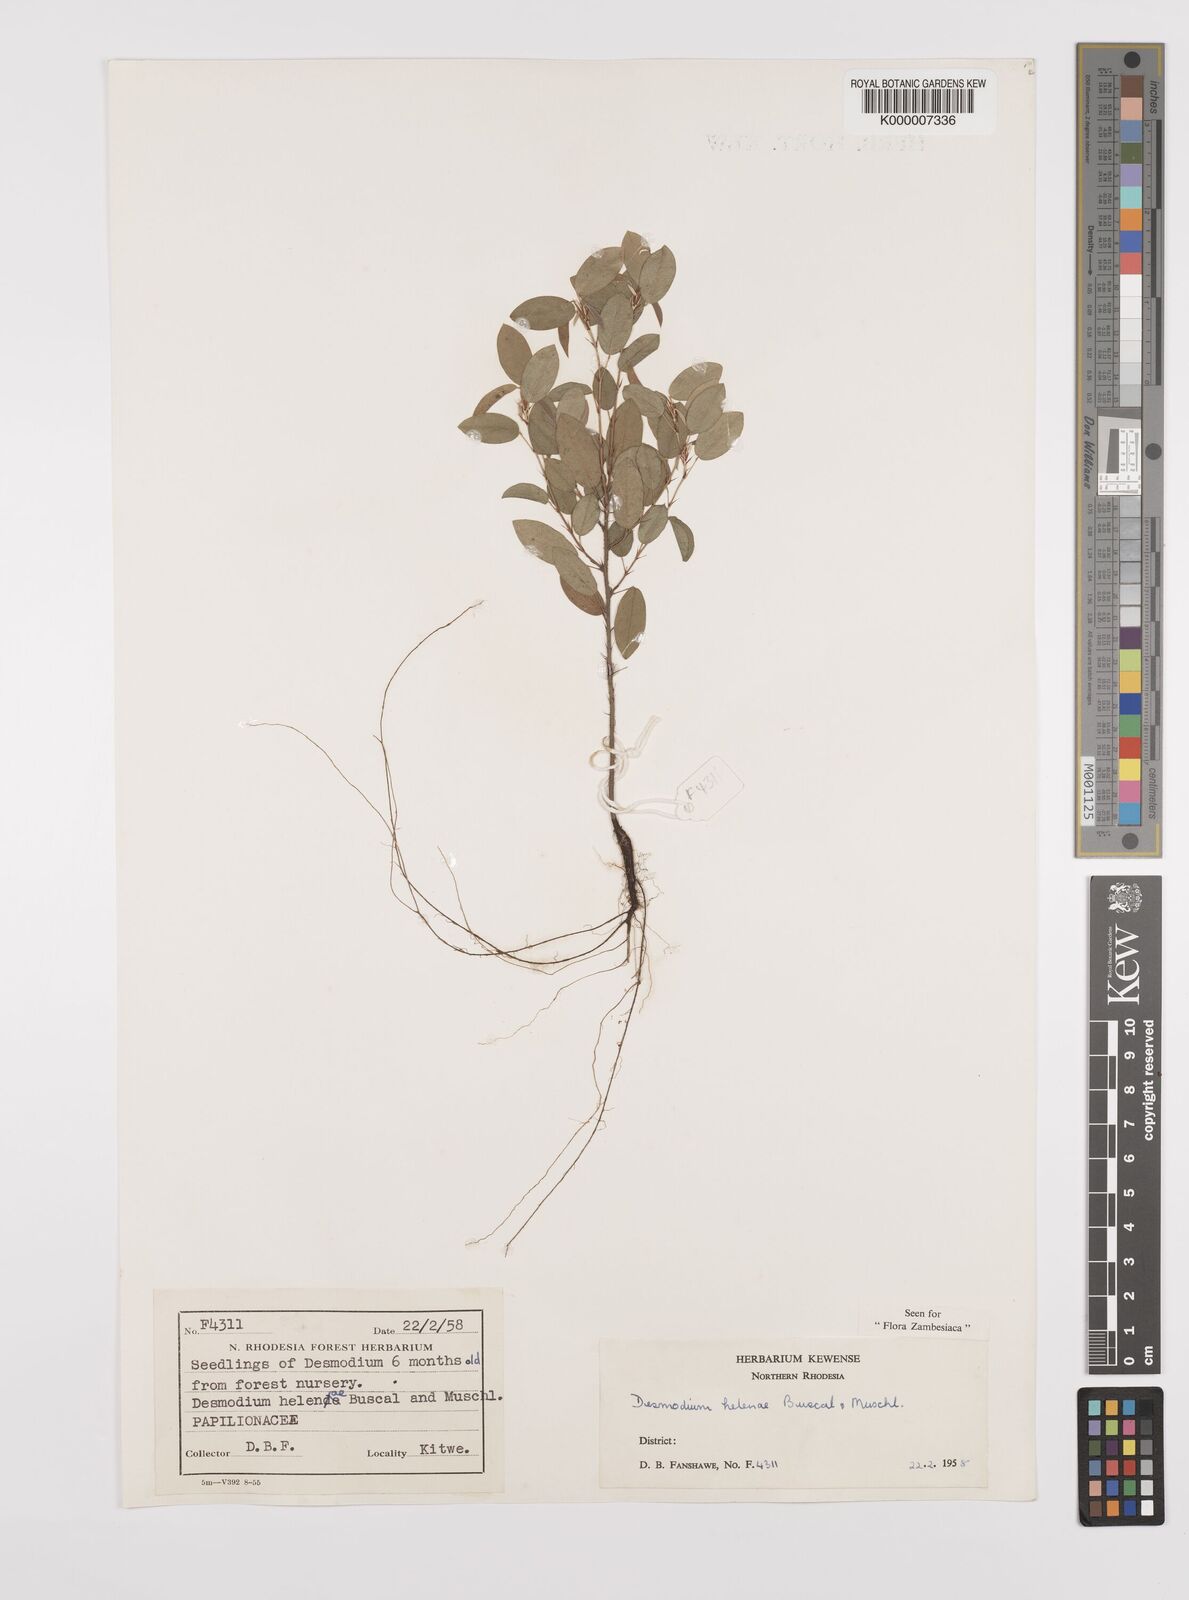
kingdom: Plantae
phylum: Tracheophyta
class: Magnoliopsida
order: Fabales
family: Fabaceae
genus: Grona
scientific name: Grona helenae
